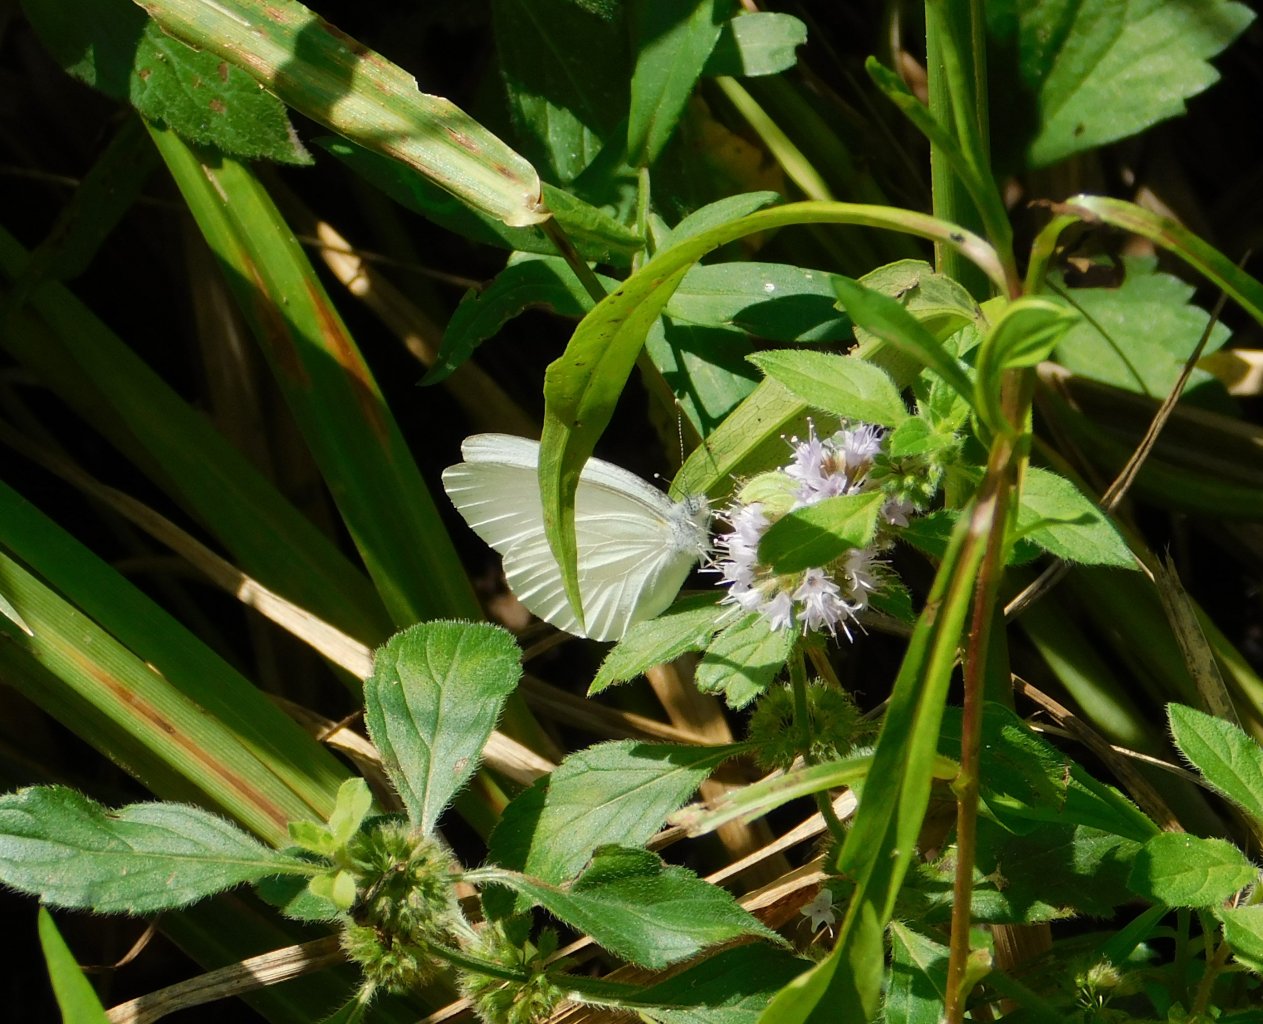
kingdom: Animalia
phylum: Arthropoda
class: Insecta
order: Lepidoptera
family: Pieridae
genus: Pieris
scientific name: Pieris oleracea
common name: Mustard White
